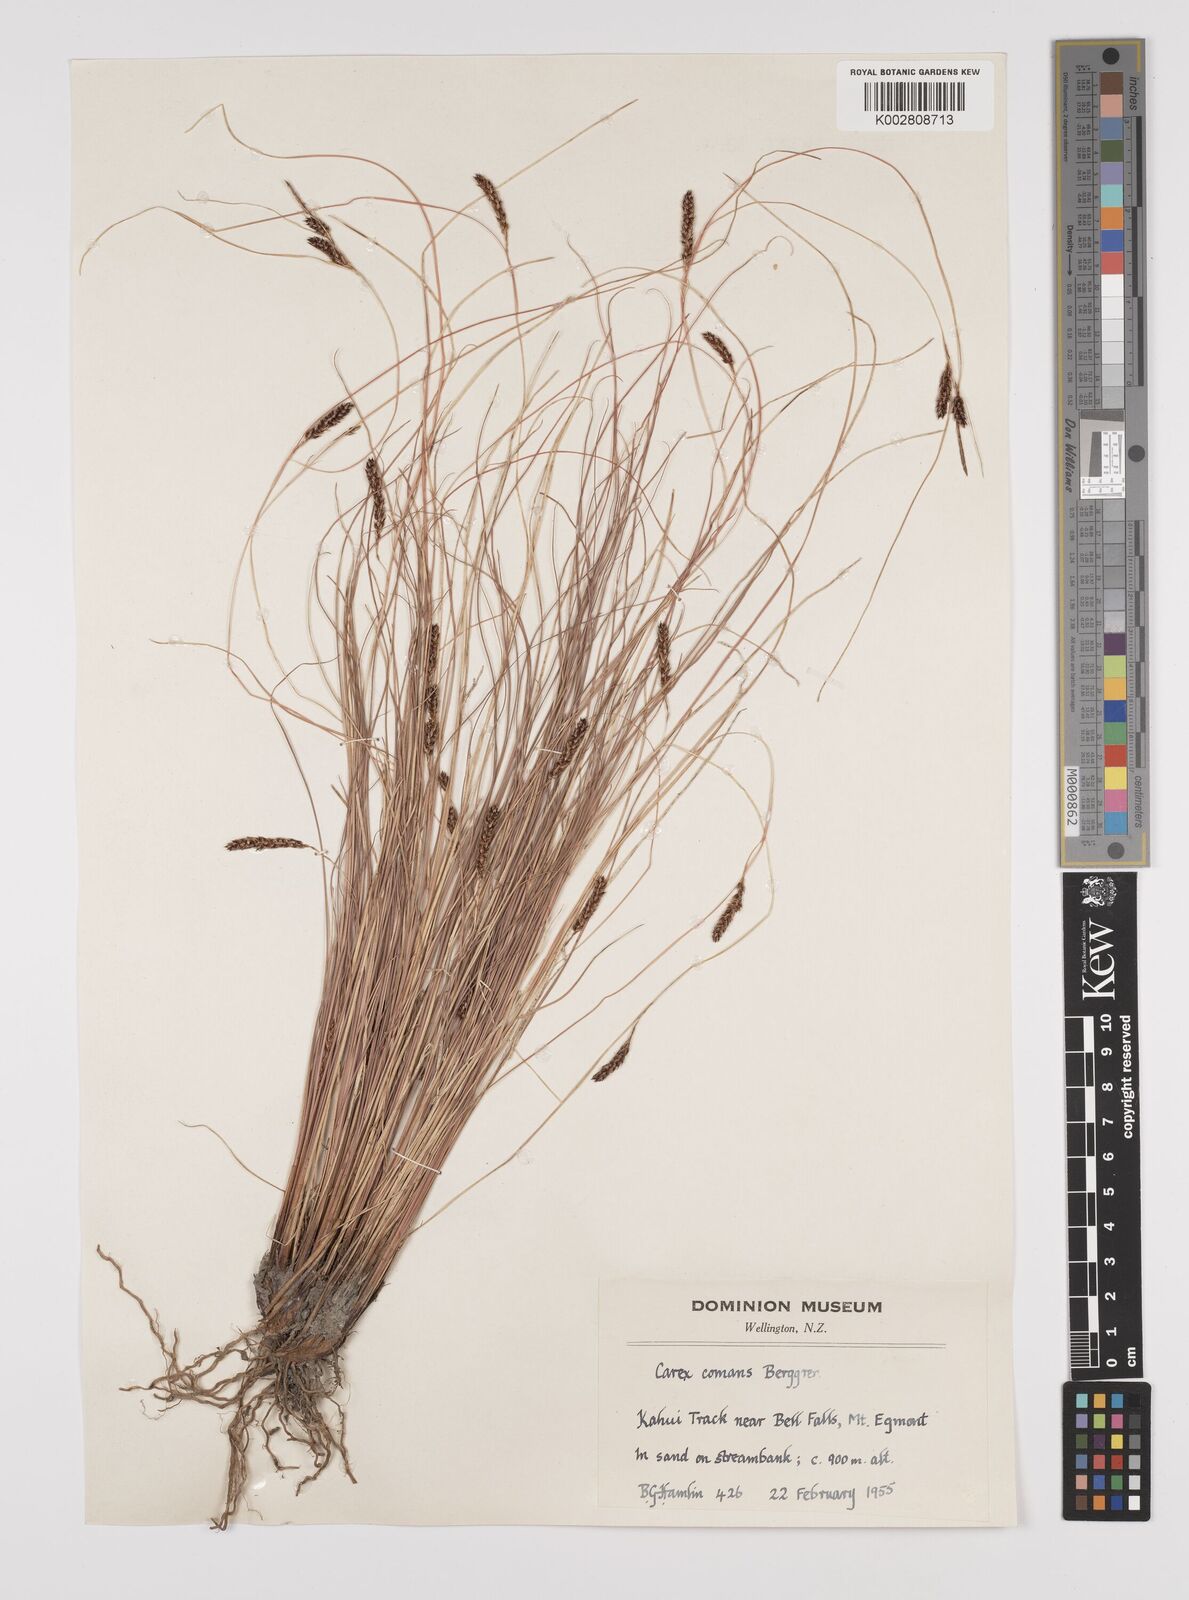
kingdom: Plantae
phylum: Tracheophyta
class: Liliopsida
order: Poales
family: Cyperaceae
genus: Carex
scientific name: Carex comans
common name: Longwood tussock
